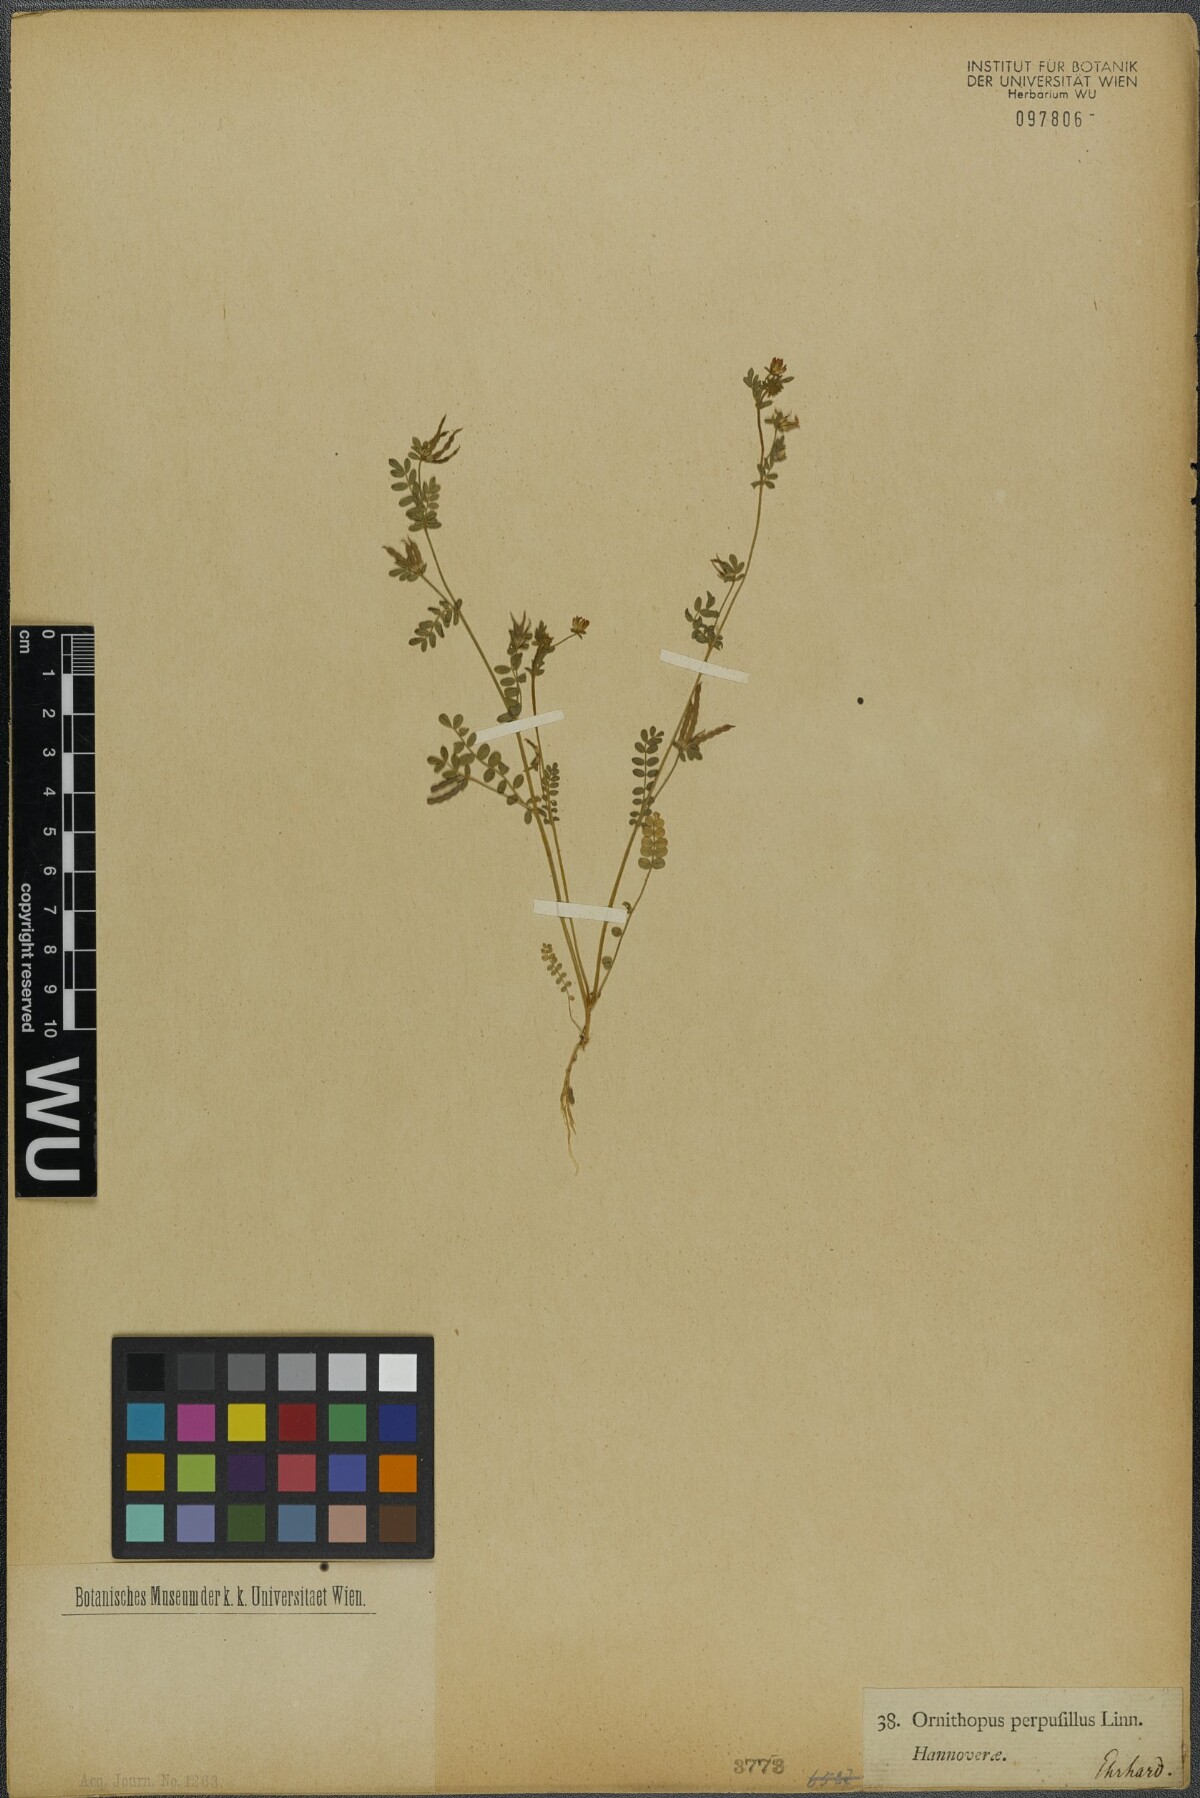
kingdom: Plantae
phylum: Tracheophyta
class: Magnoliopsida
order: Fabales
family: Fabaceae
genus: Ornithopus
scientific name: Ornithopus perpusillus
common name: Bird's-foot
